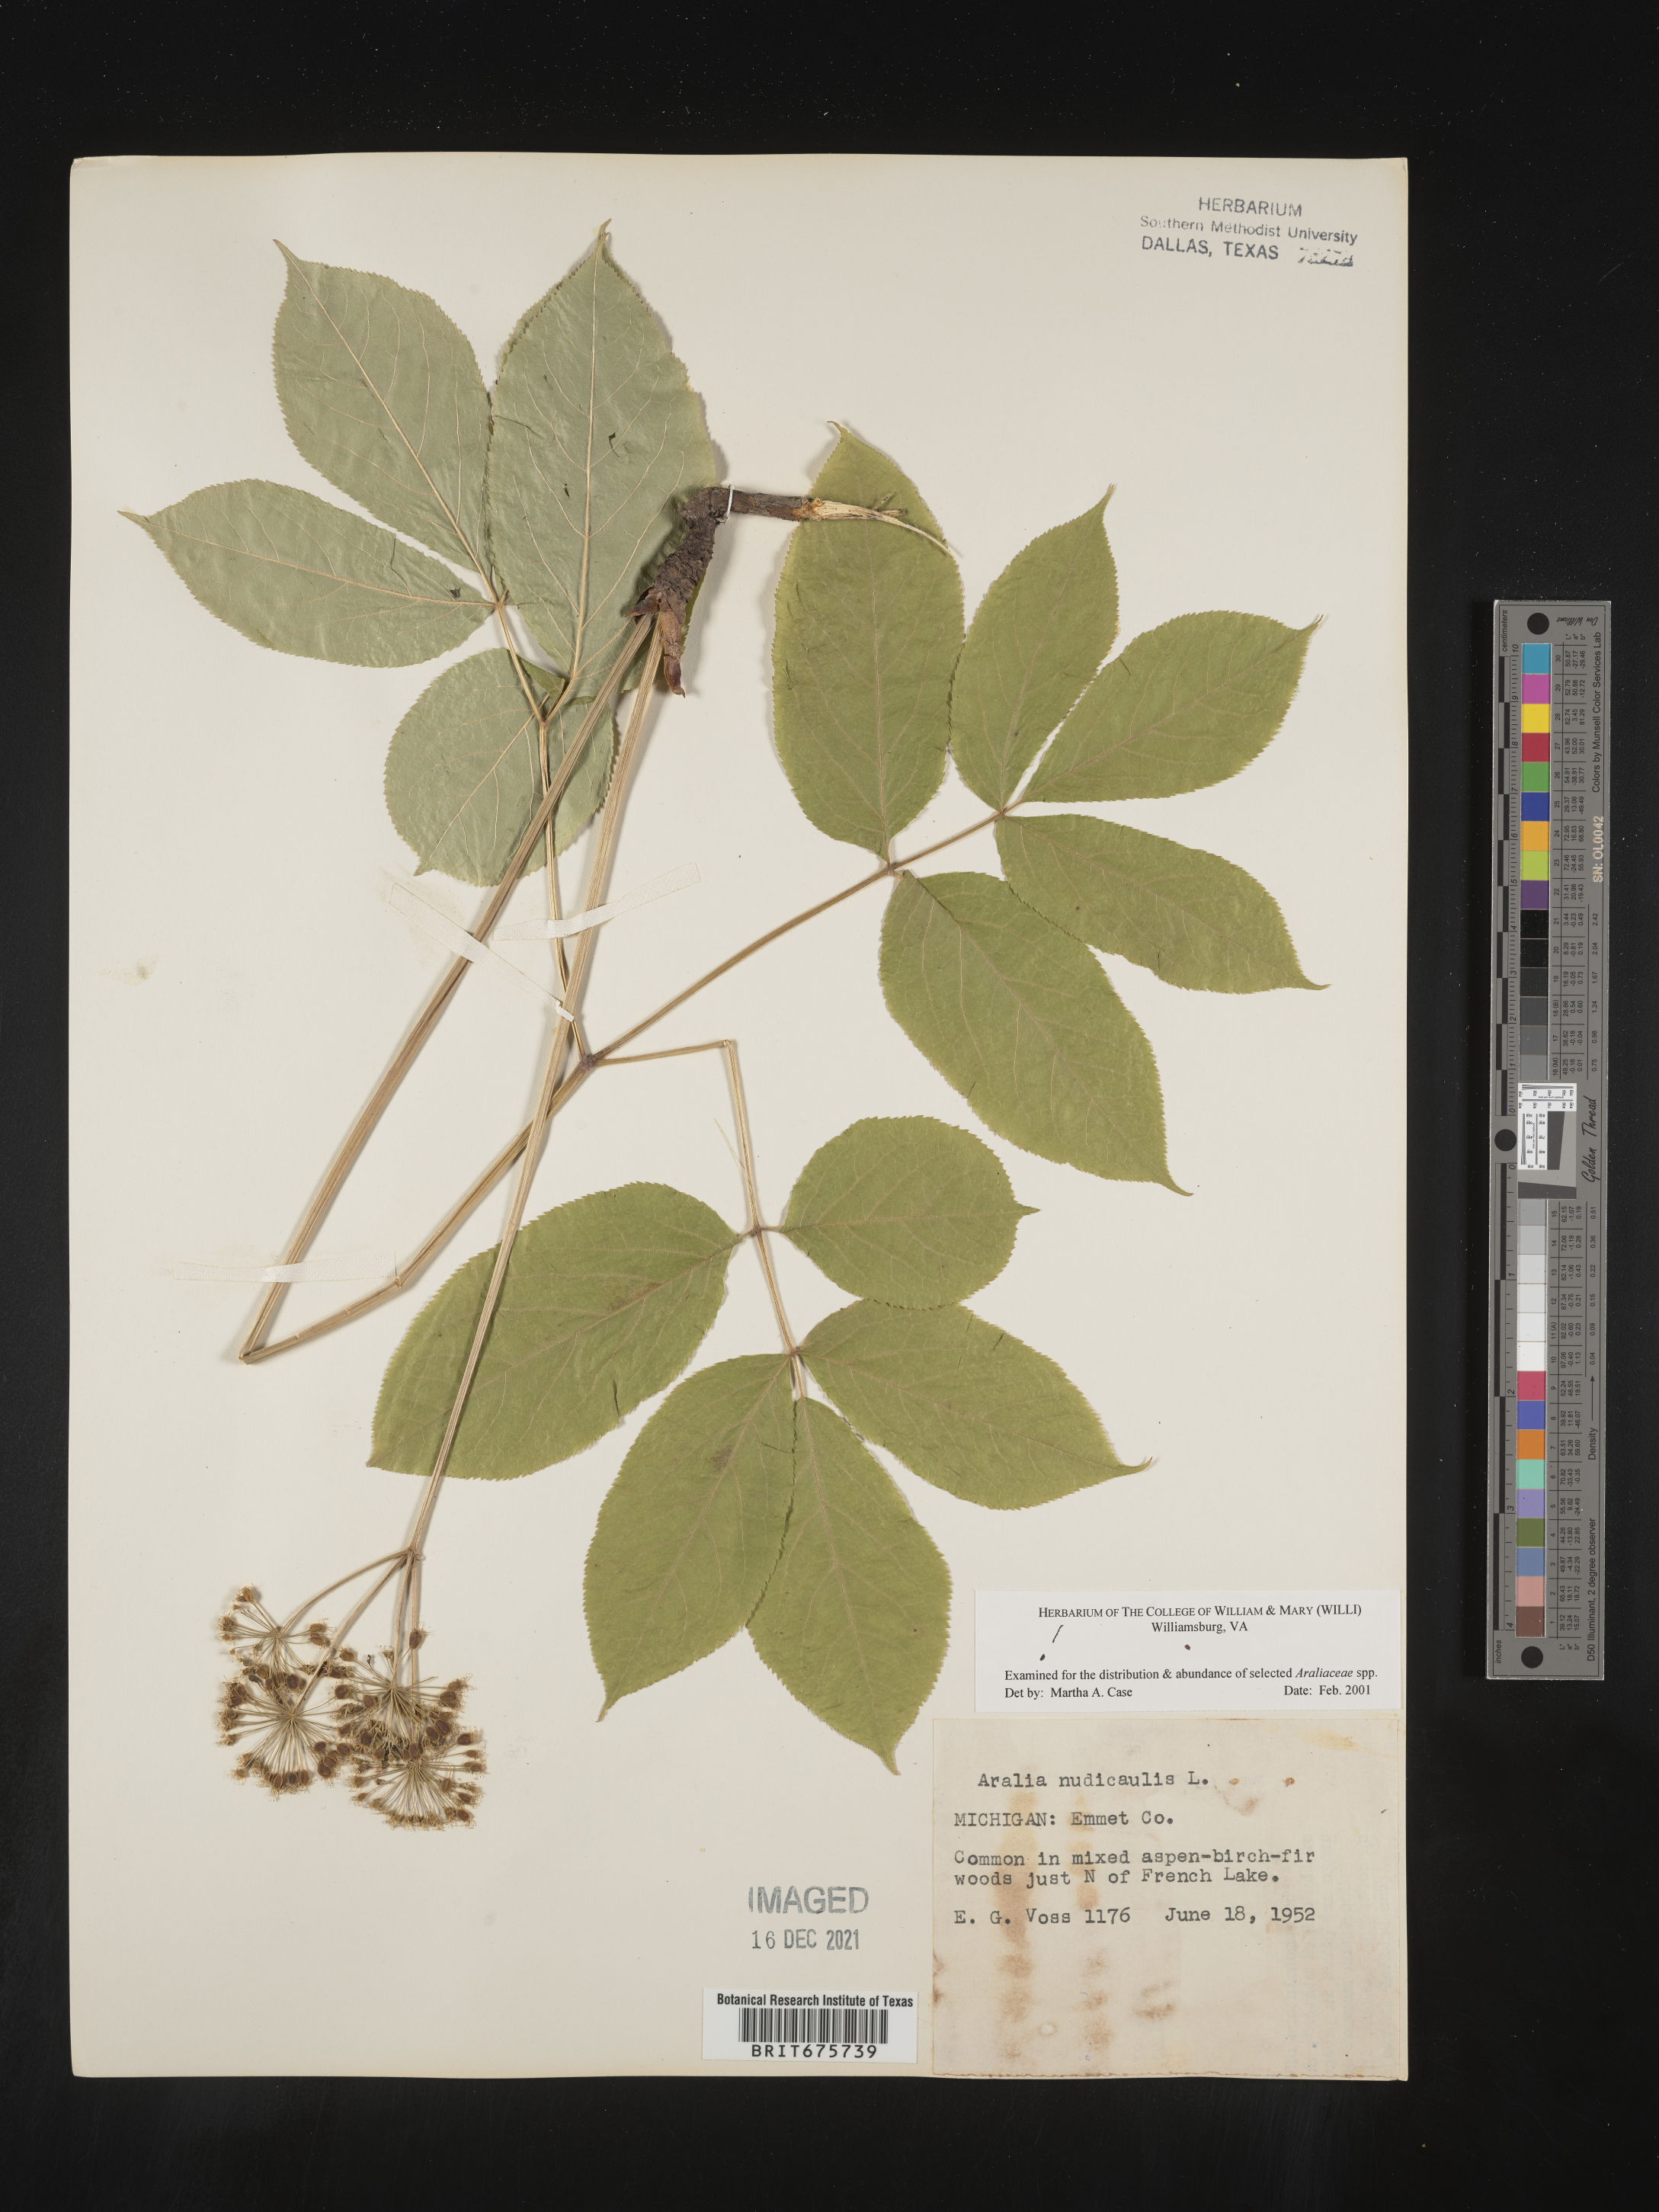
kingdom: Plantae
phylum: Tracheophyta
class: Magnoliopsida
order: Apiales
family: Araliaceae
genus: Aralia
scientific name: Aralia nudicaulis
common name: Wild sarsaparilla
